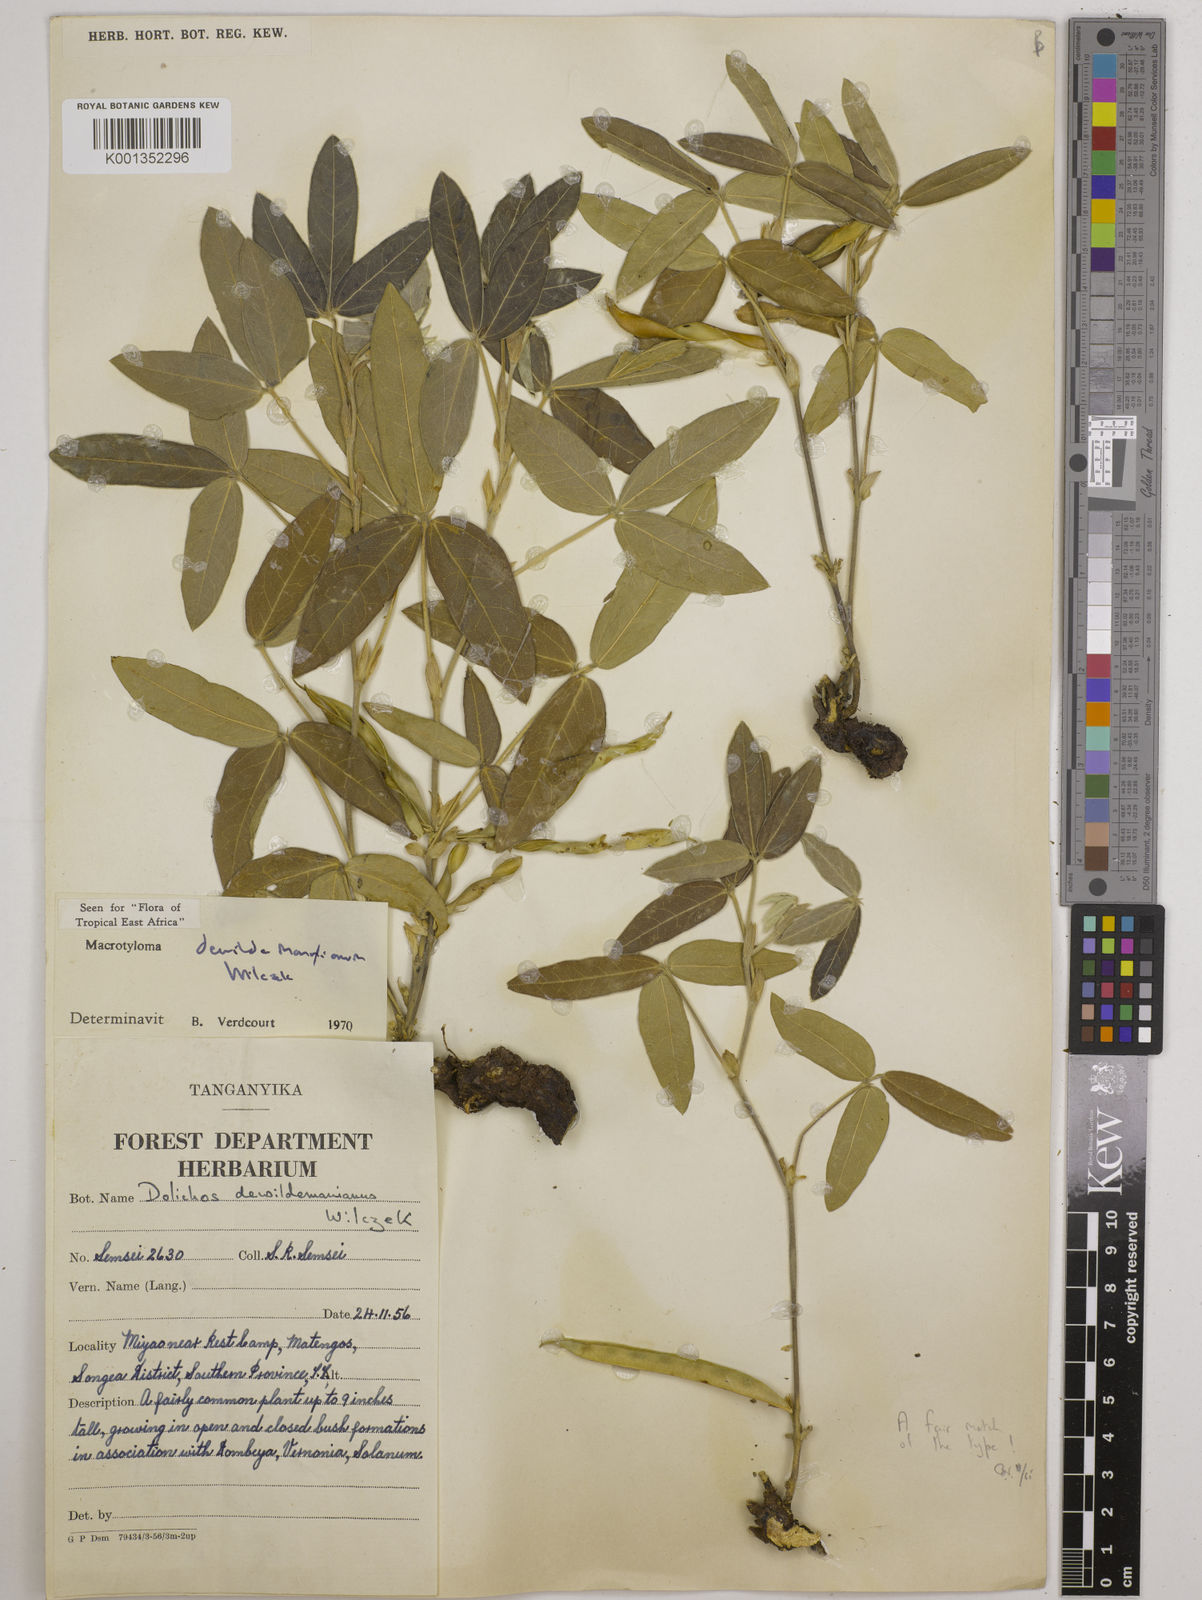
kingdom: Plantae
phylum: Tracheophyta
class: Magnoliopsida
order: Fabales
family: Fabaceae
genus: Macrotyloma
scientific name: Macrotyloma dewildemanianum
